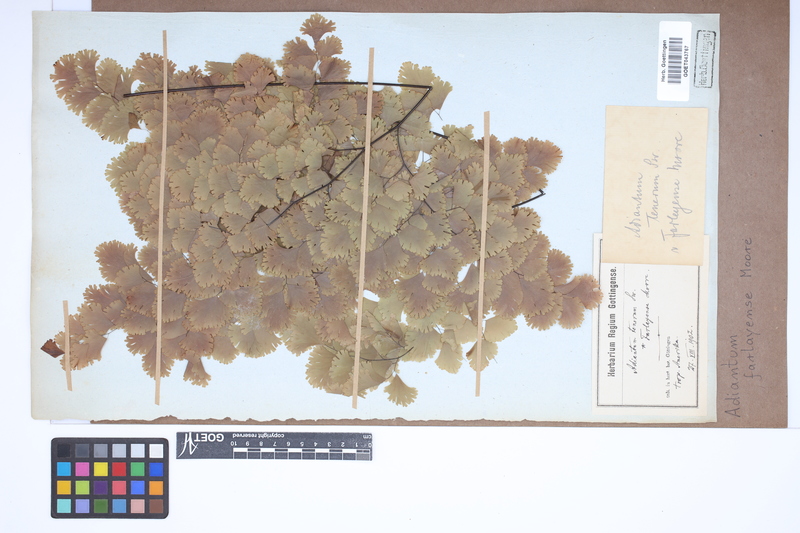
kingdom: Plantae
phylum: Tracheophyta
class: Polypodiopsida
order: Polypodiales
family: Pteridaceae
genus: Adiantum
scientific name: Adiantum tenerum
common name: Fan maidenhair
